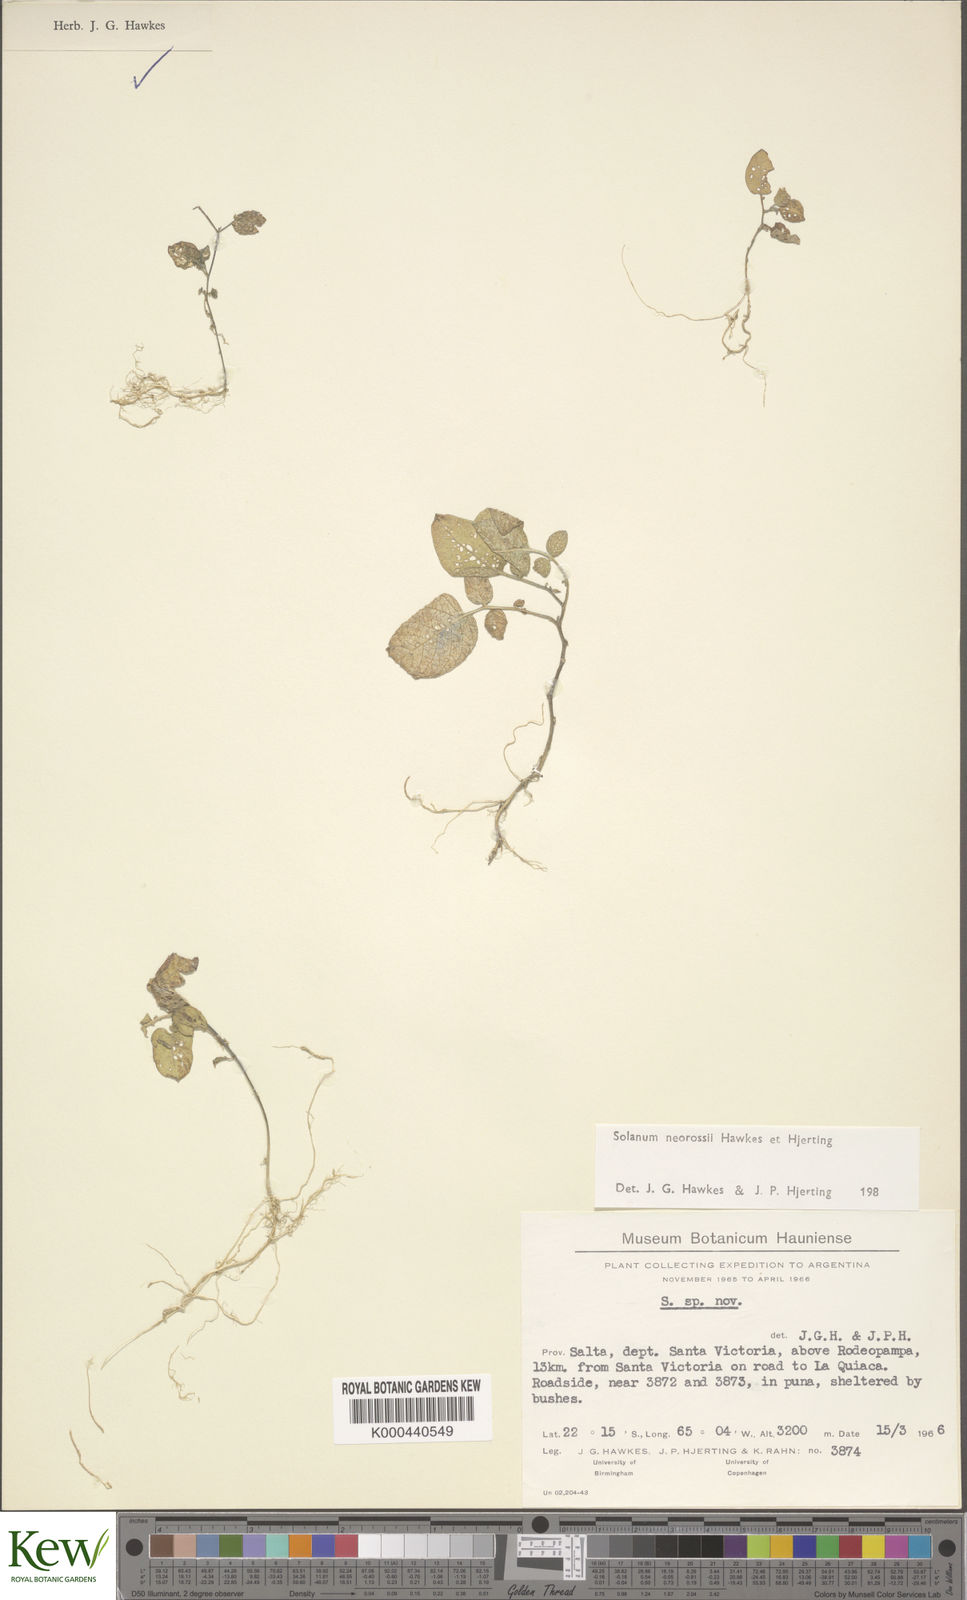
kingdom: Plantae
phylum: Tracheophyta
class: Magnoliopsida
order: Solanales
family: Solanaceae
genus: Solanum
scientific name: Solanum neorossii
